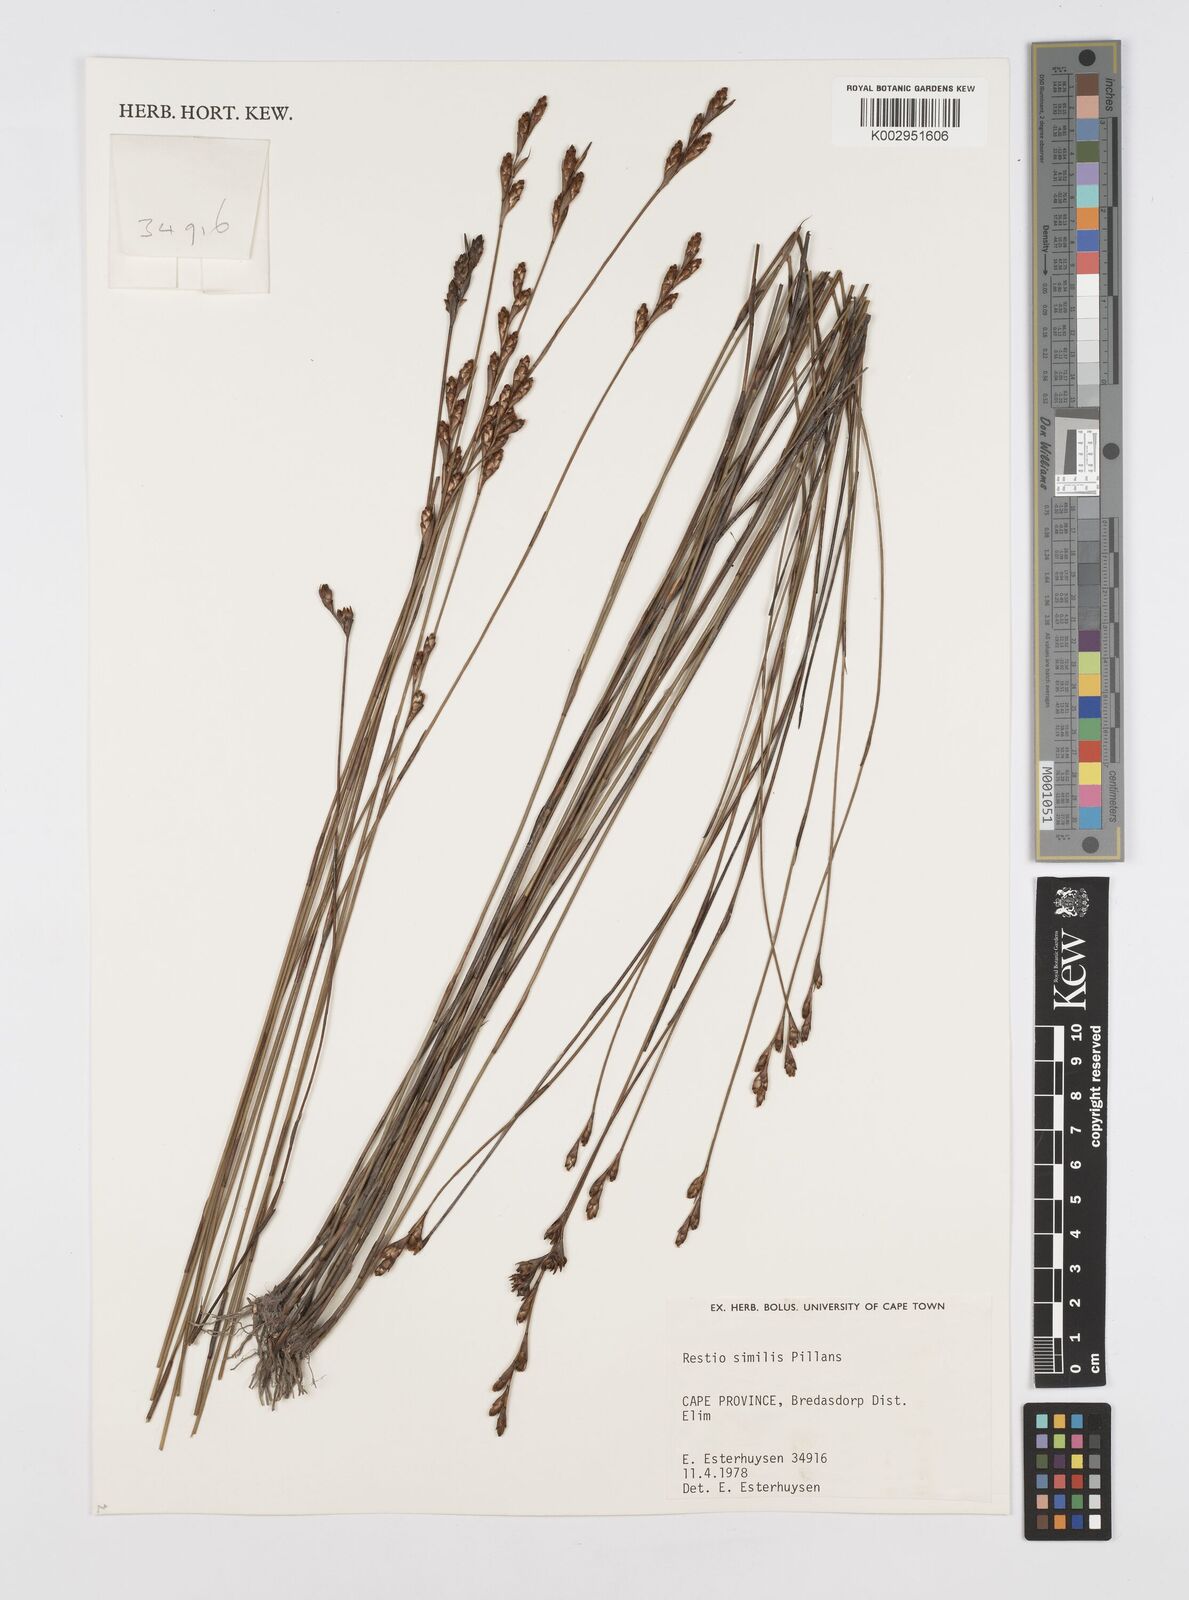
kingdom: Plantae
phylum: Tracheophyta
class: Liliopsida
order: Poales
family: Restionaceae
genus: Restio
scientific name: Restio similis
